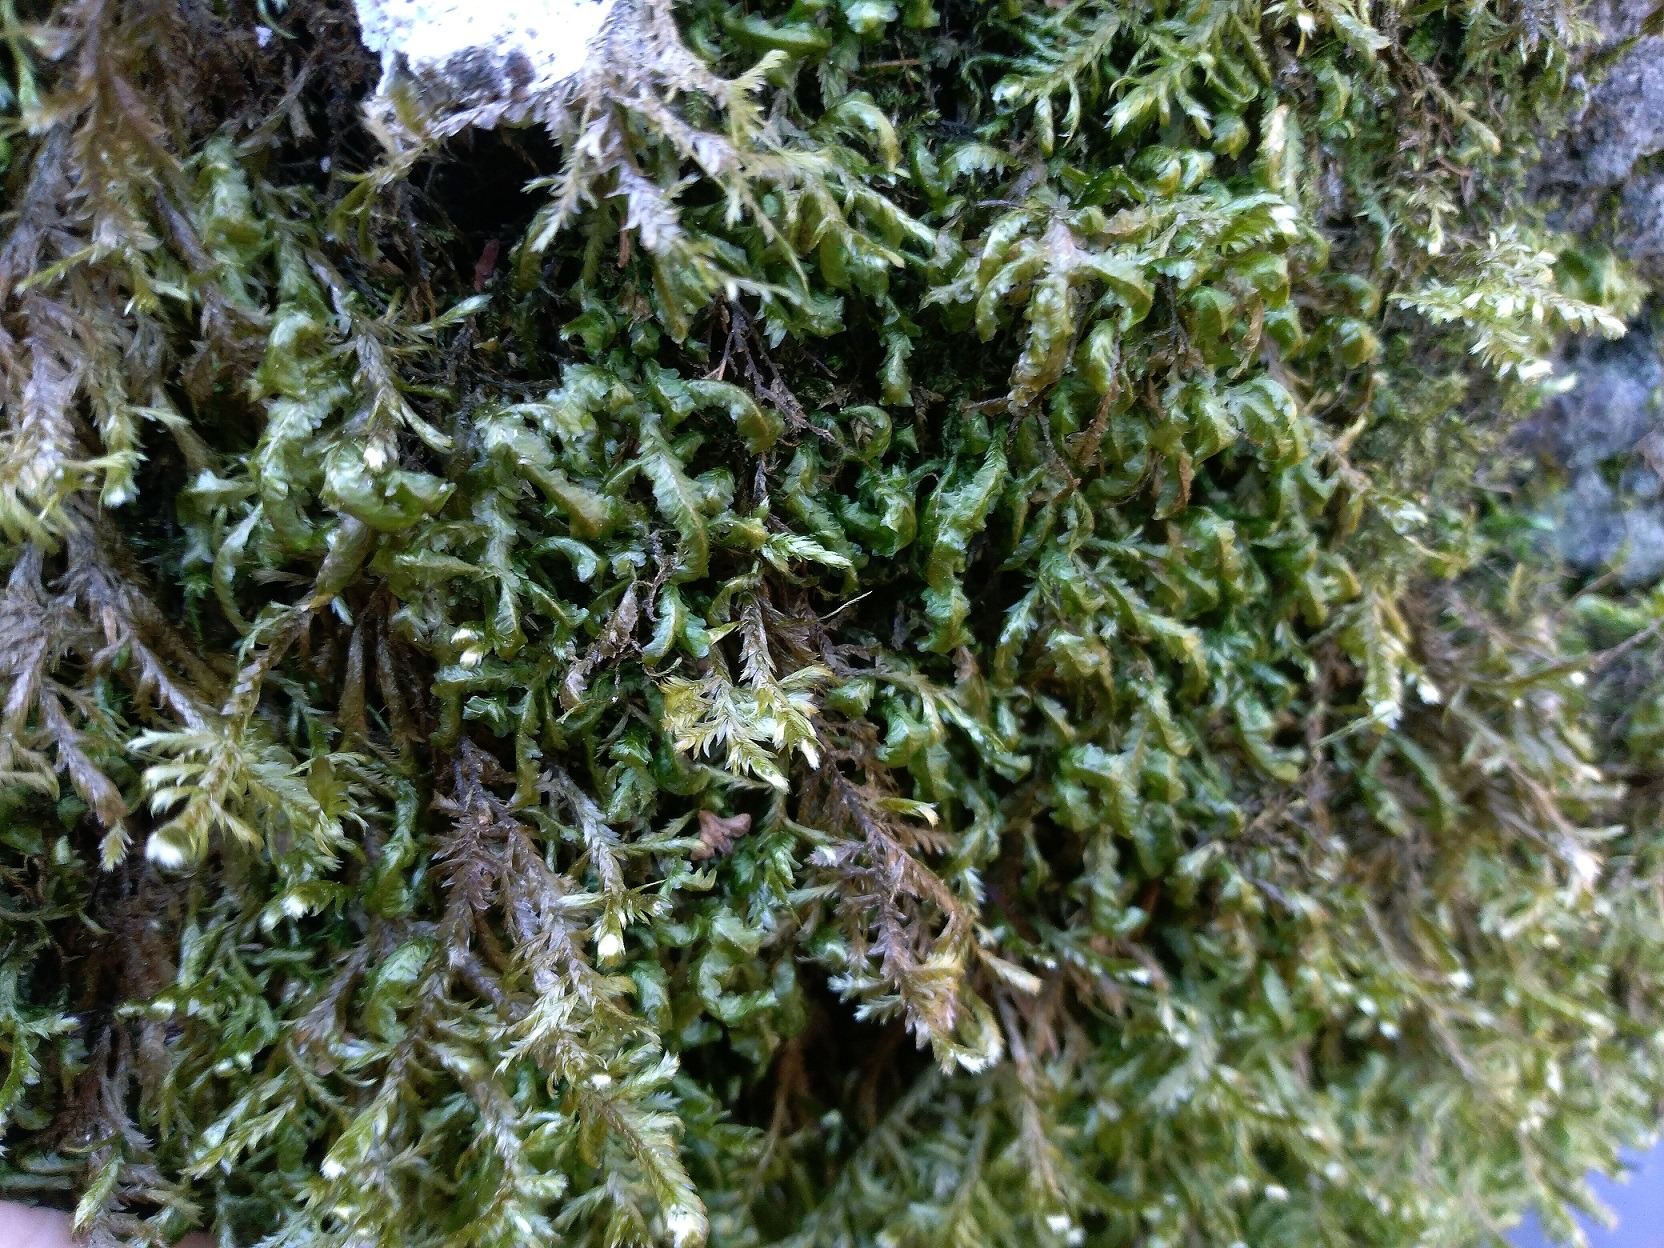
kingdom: Plantae
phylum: Bryophyta
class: Bryopsida
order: Hypnales
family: Neckeraceae
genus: Homalia
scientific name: Homalia trichomanoides
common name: Skov-tungemos
